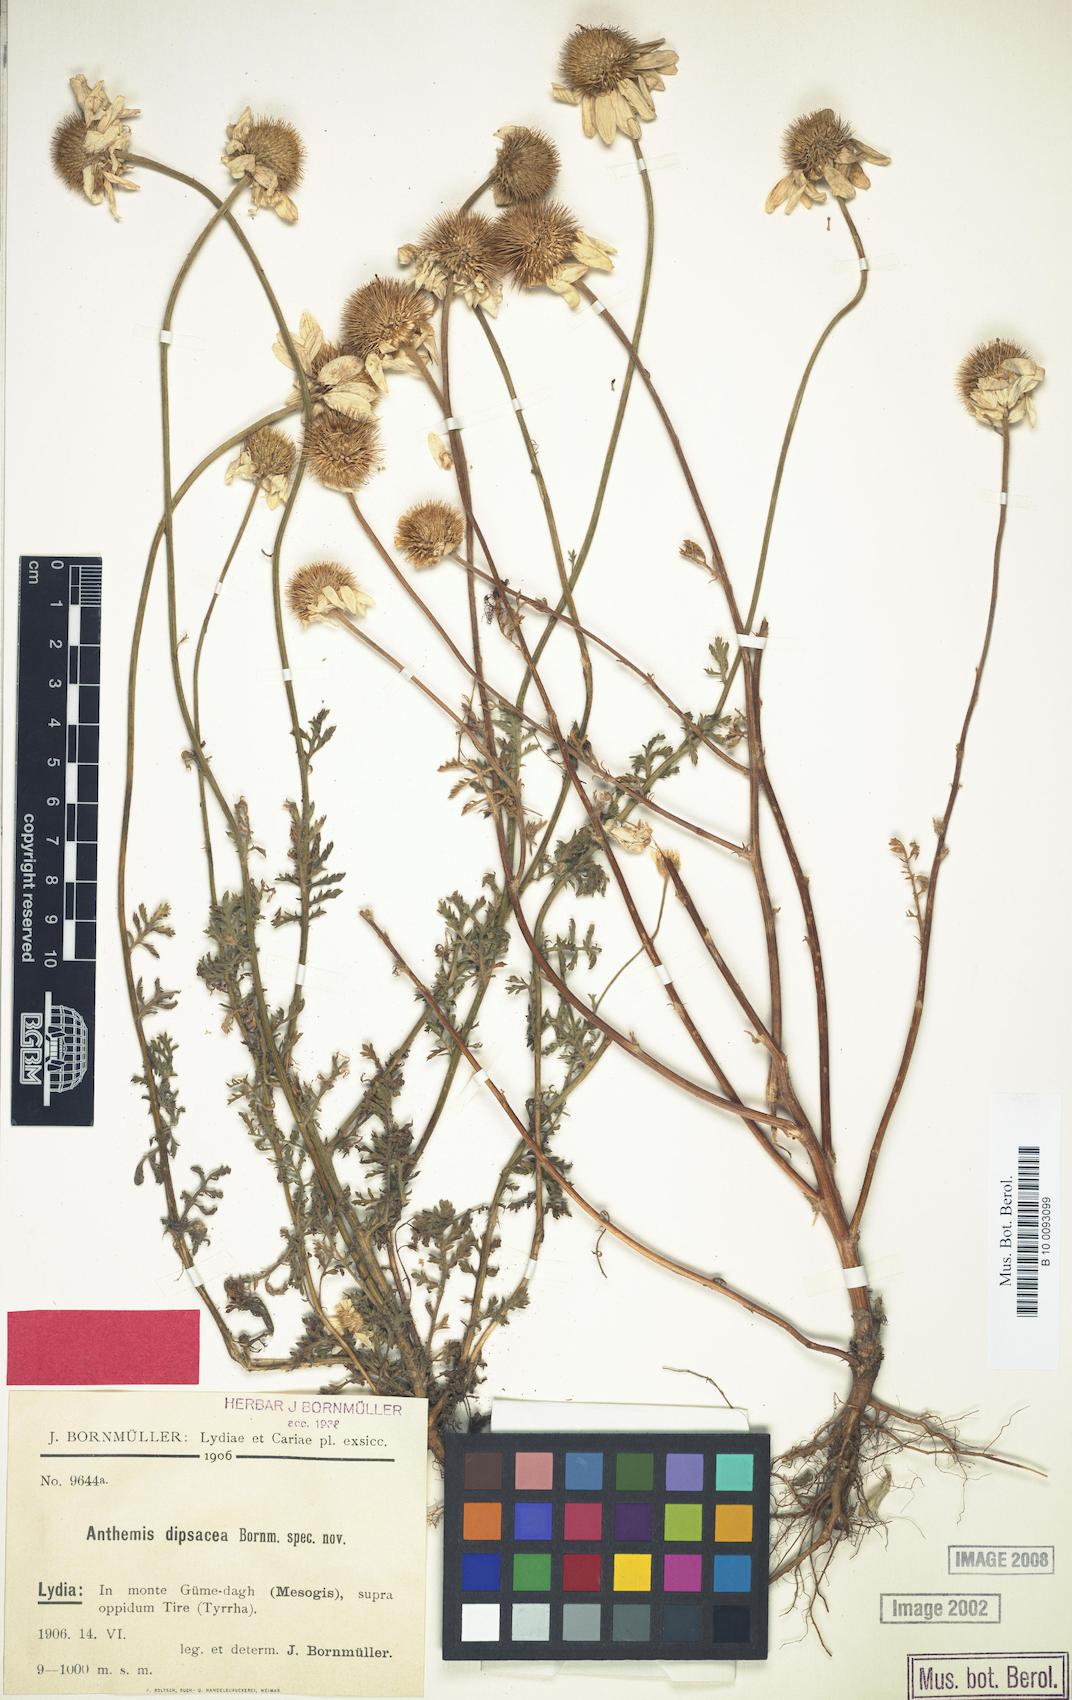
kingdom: Plantae
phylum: Tracheophyta
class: Magnoliopsida
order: Asterales
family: Asteraceae
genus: Cota
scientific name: Cota dipsacea
